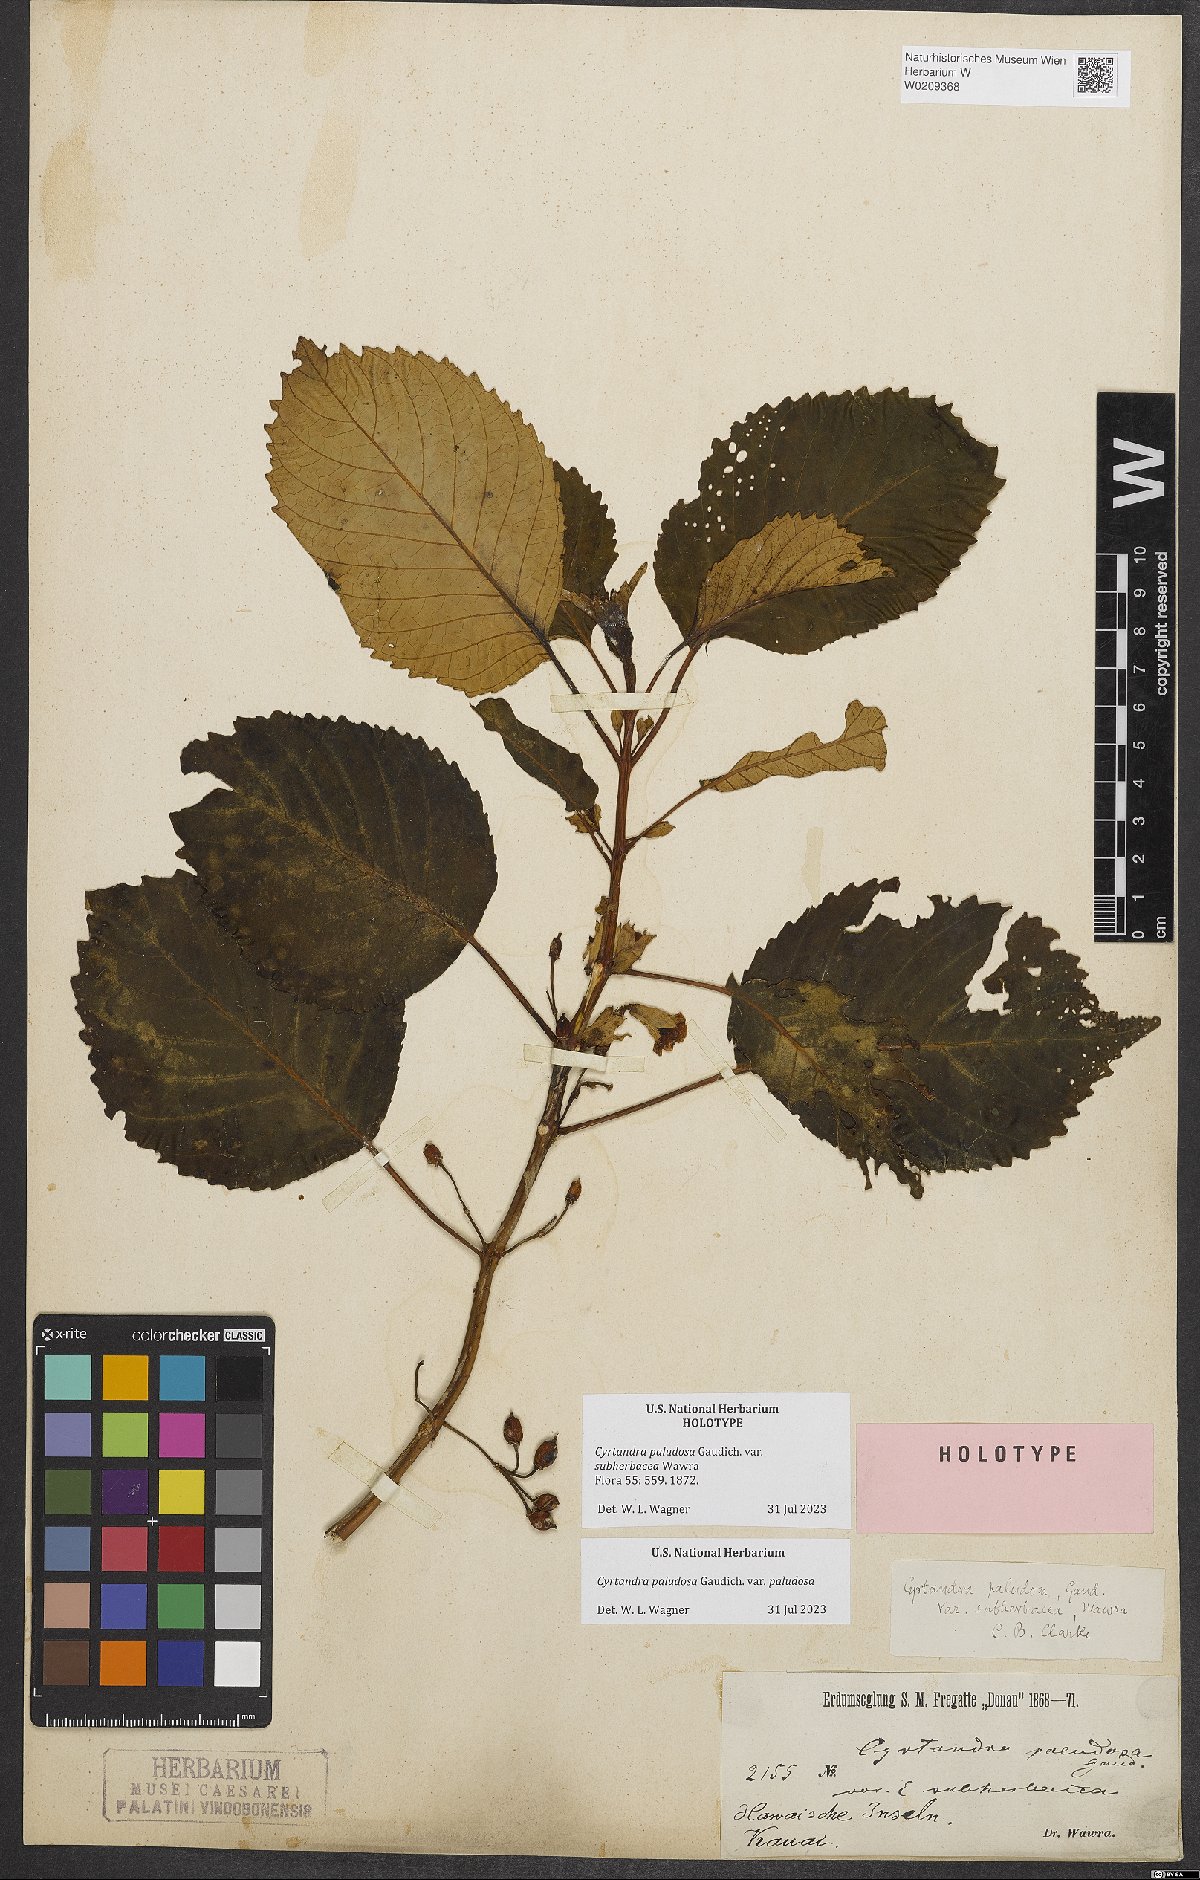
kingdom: Plantae
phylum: Tracheophyta
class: Magnoliopsida
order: Lamiales
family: Gesneriaceae
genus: Cyrtandra
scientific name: Cyrtandra paludosa
